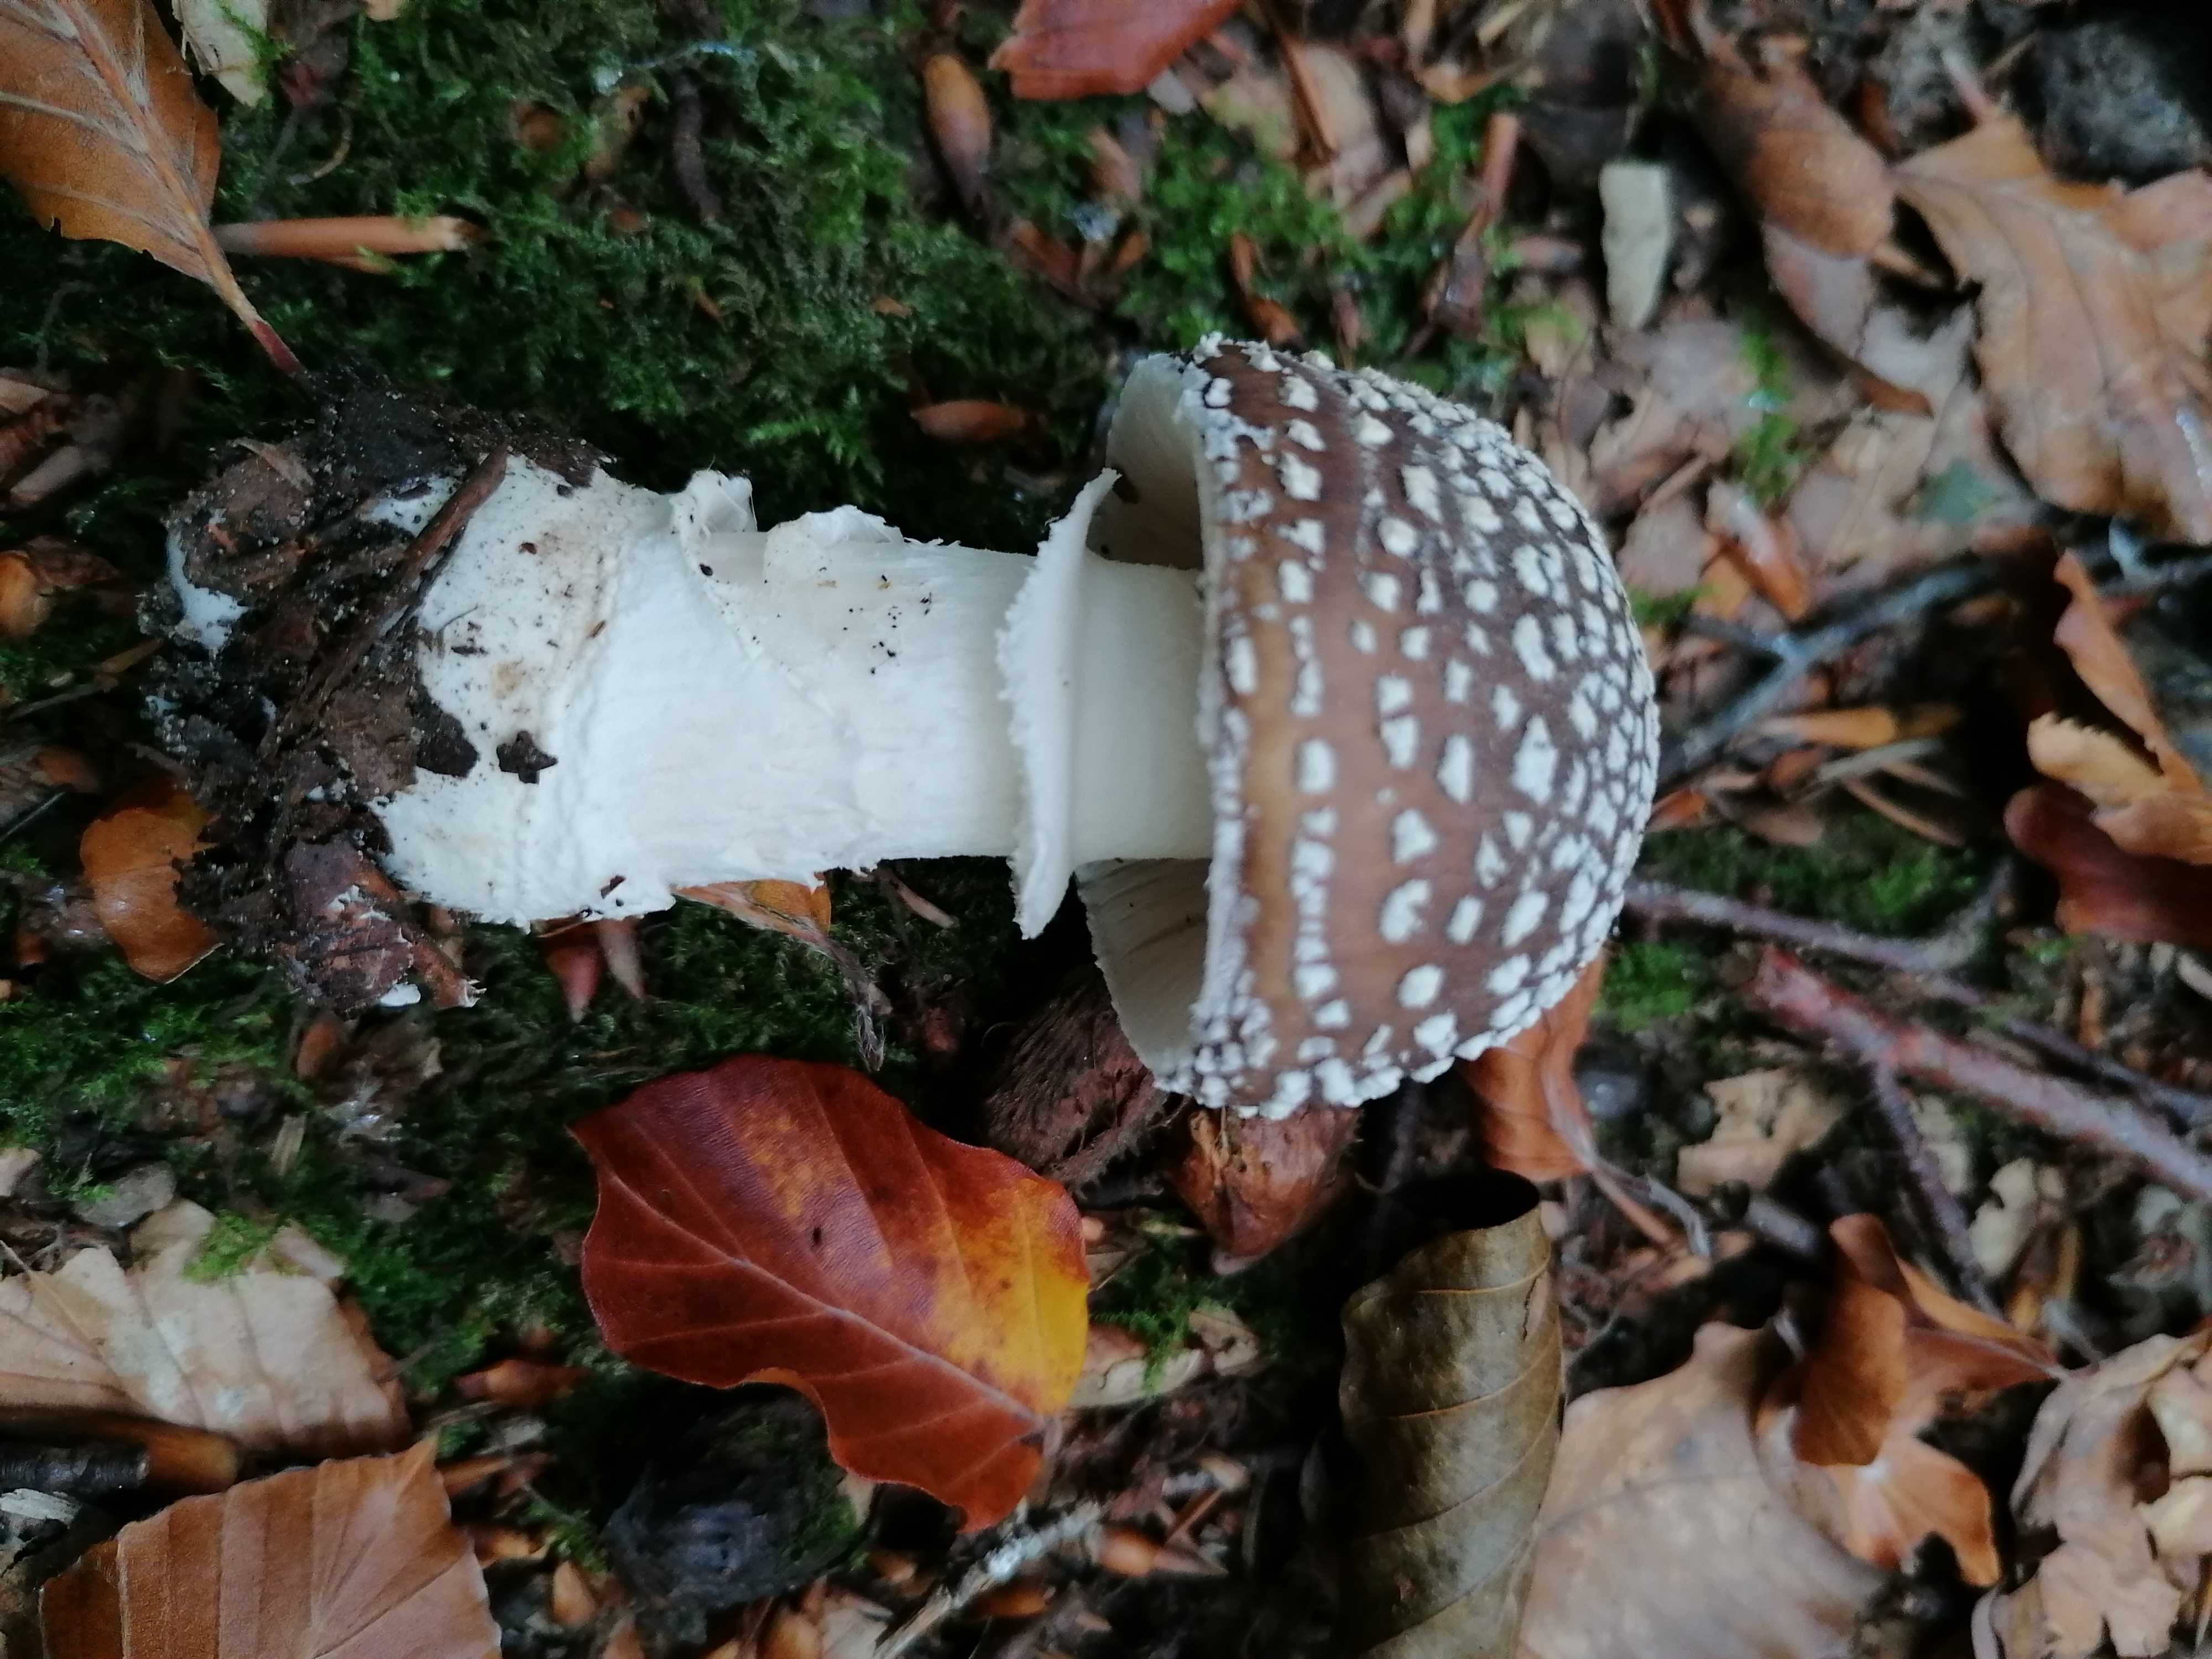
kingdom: Fungi
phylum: Basidiomycota
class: Agaricomycetes
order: Agaricales
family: Amanitaceae
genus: Amanita
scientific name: Amanita pantherina
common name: panter-fluesvamp
